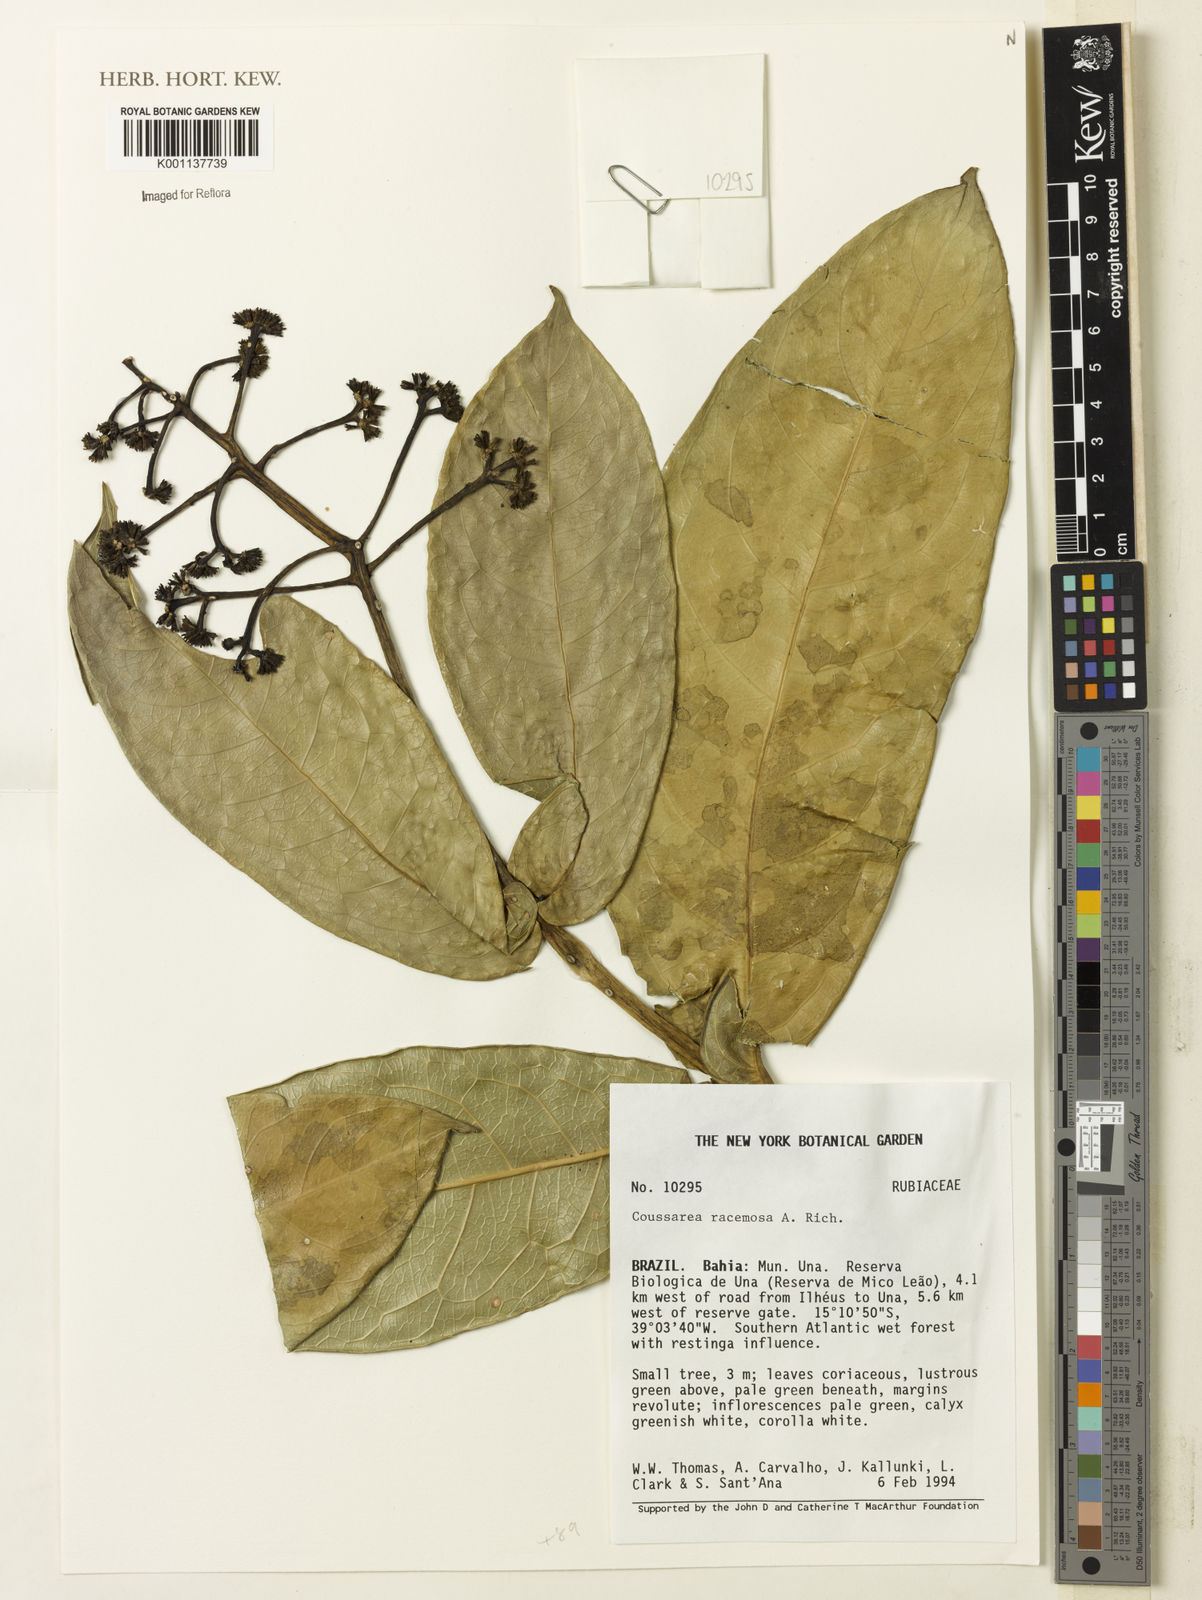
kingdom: Plantae
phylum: Tracheophyta
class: Magnoliopsida
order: Gentianales
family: Rubiaceae
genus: Coussarea
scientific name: Coussarea
